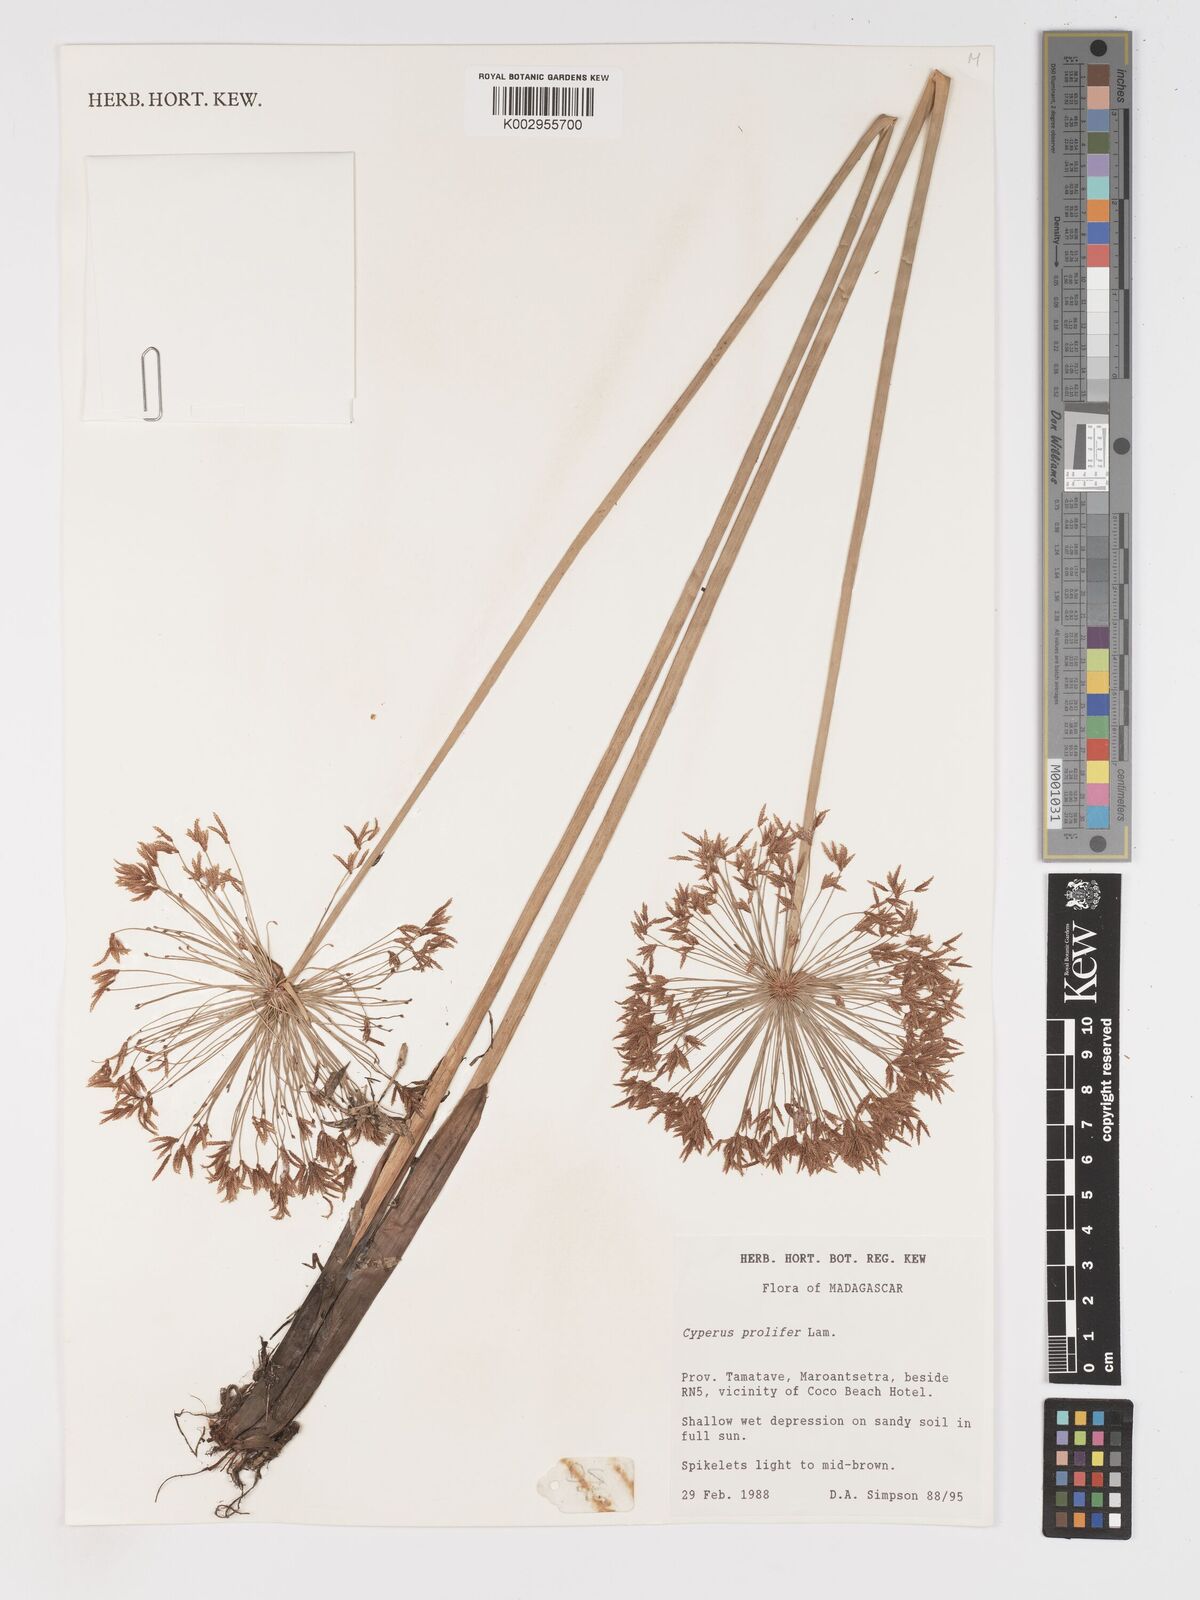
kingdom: Plantae
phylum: Tracheophyta
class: Liliopsida
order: Poales
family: Cyperaceae
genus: Cyperus
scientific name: Cyperus prolifer
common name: Miniature flatsedge
